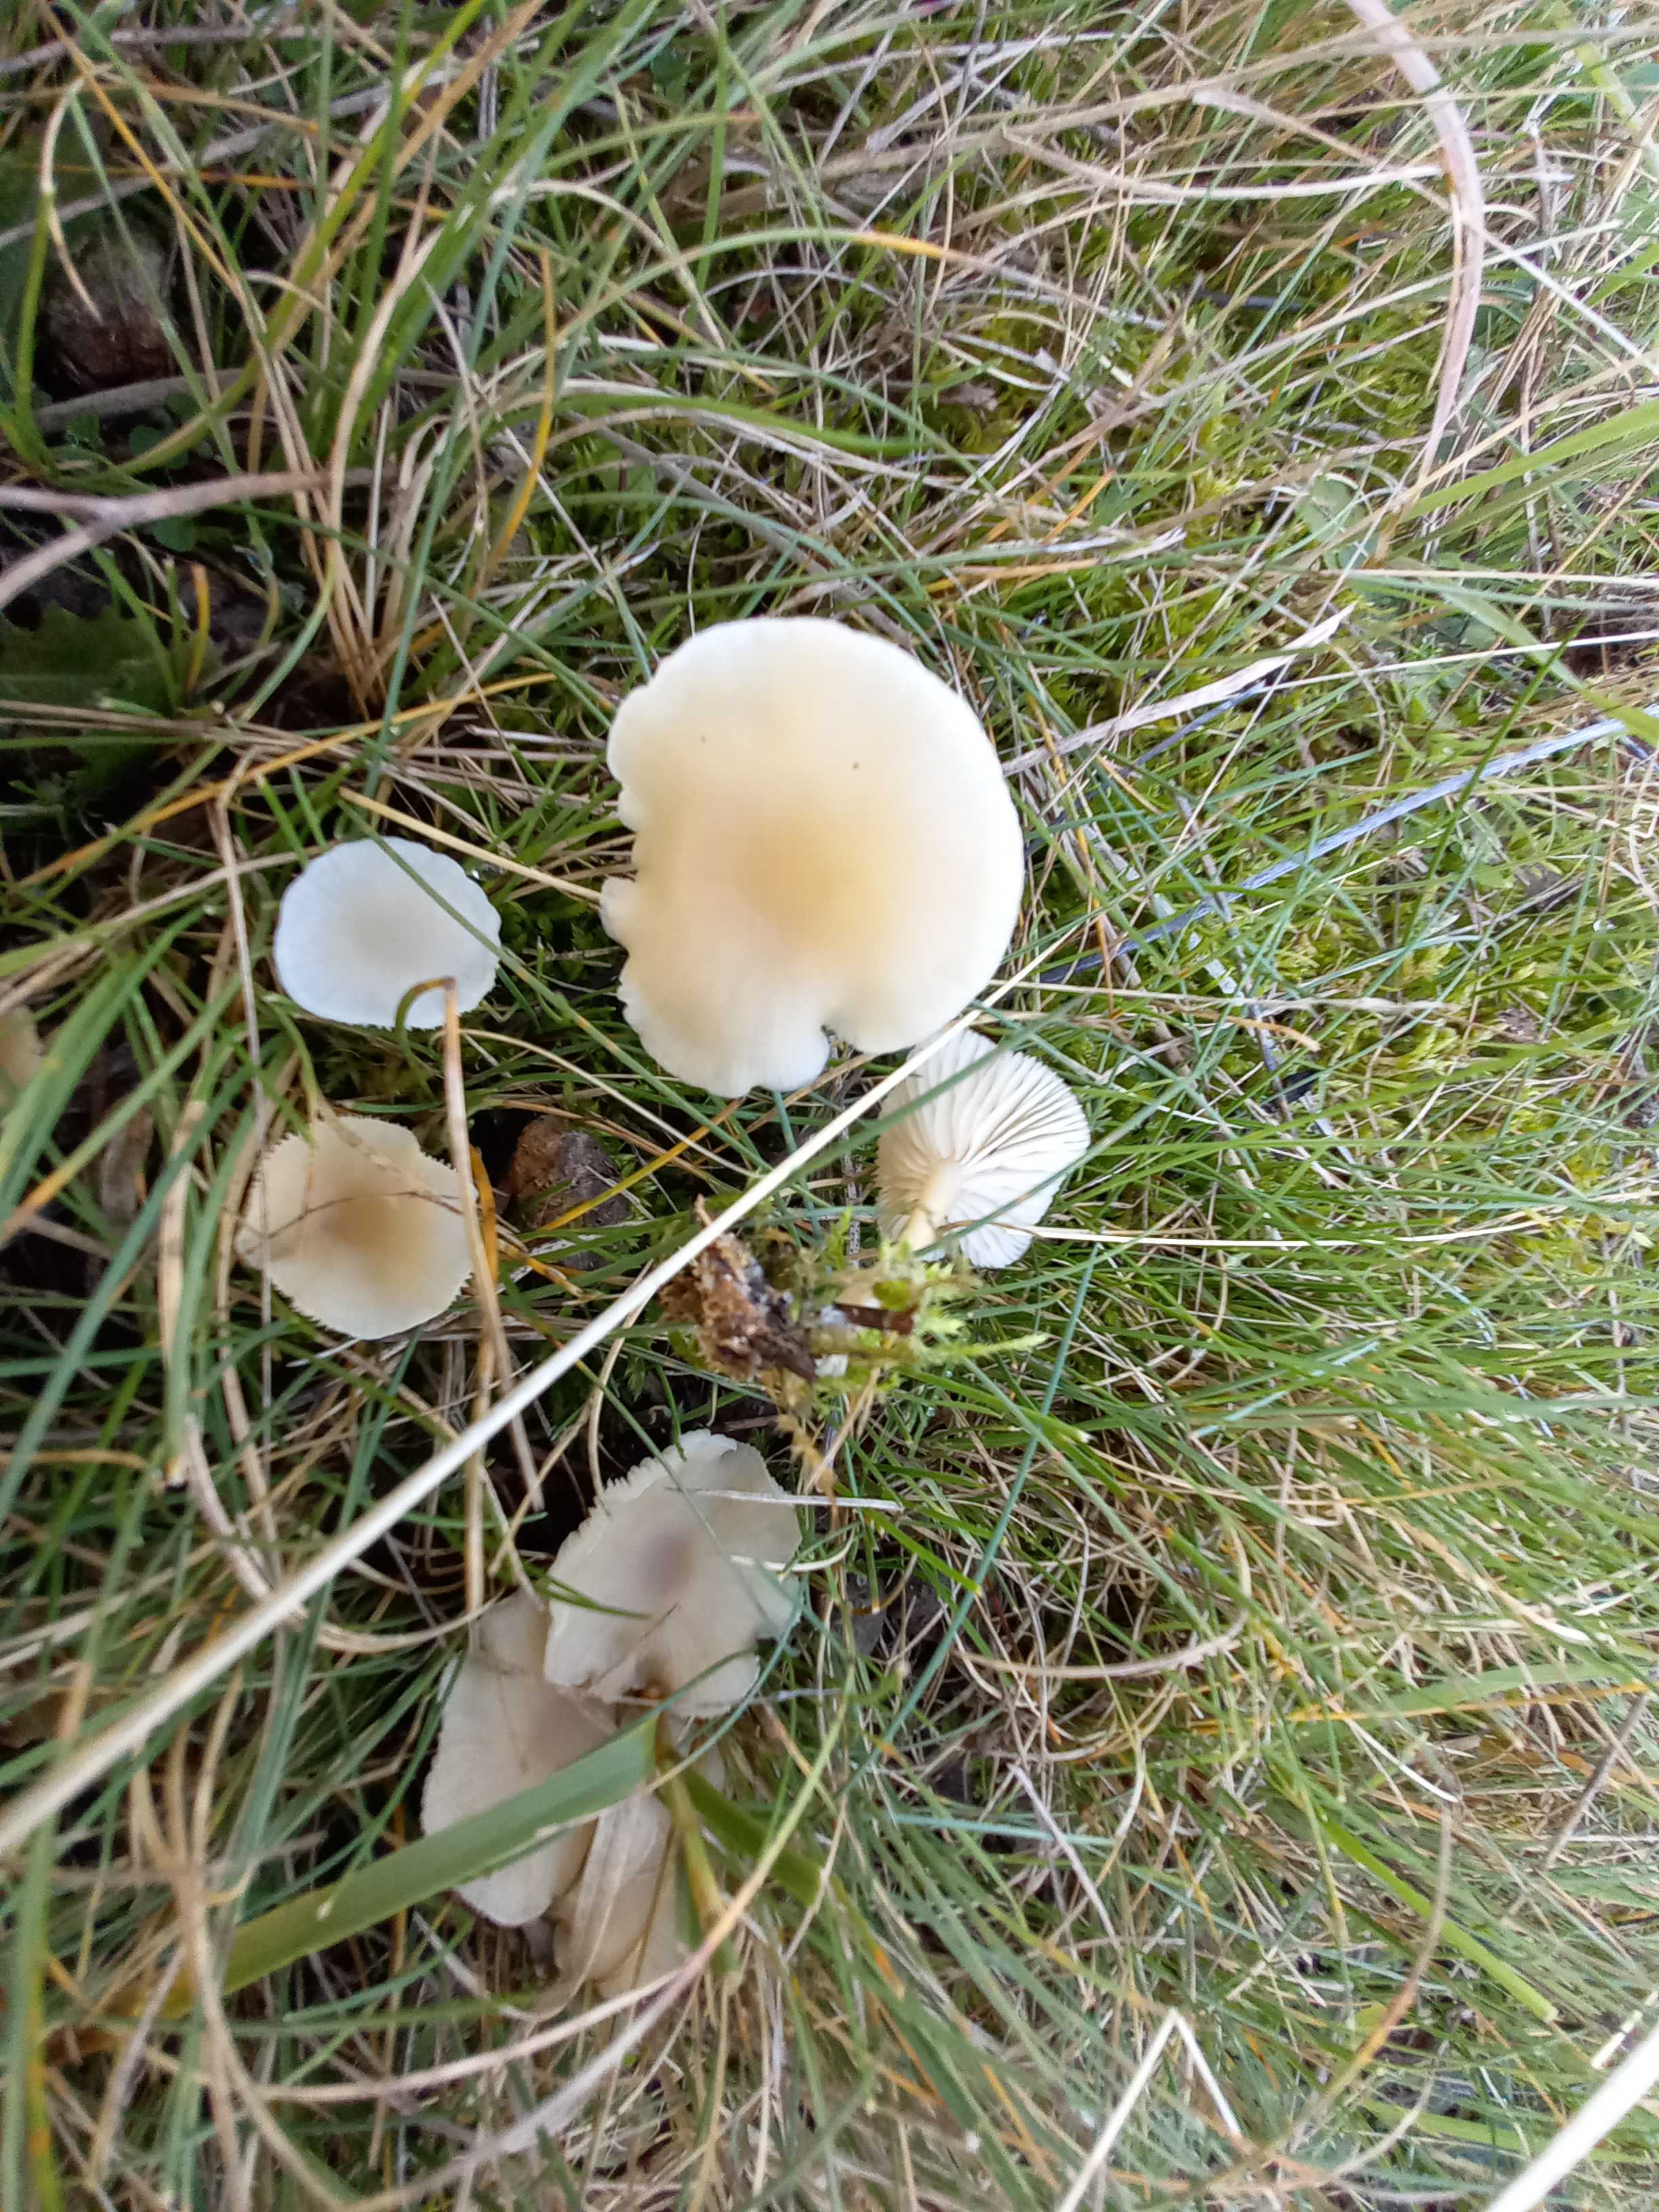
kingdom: Fungi
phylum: Basidiomycota
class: Agaricomycetes
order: Agaricales
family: Tricholomataceae
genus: Clitocybe
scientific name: Clitocybe
